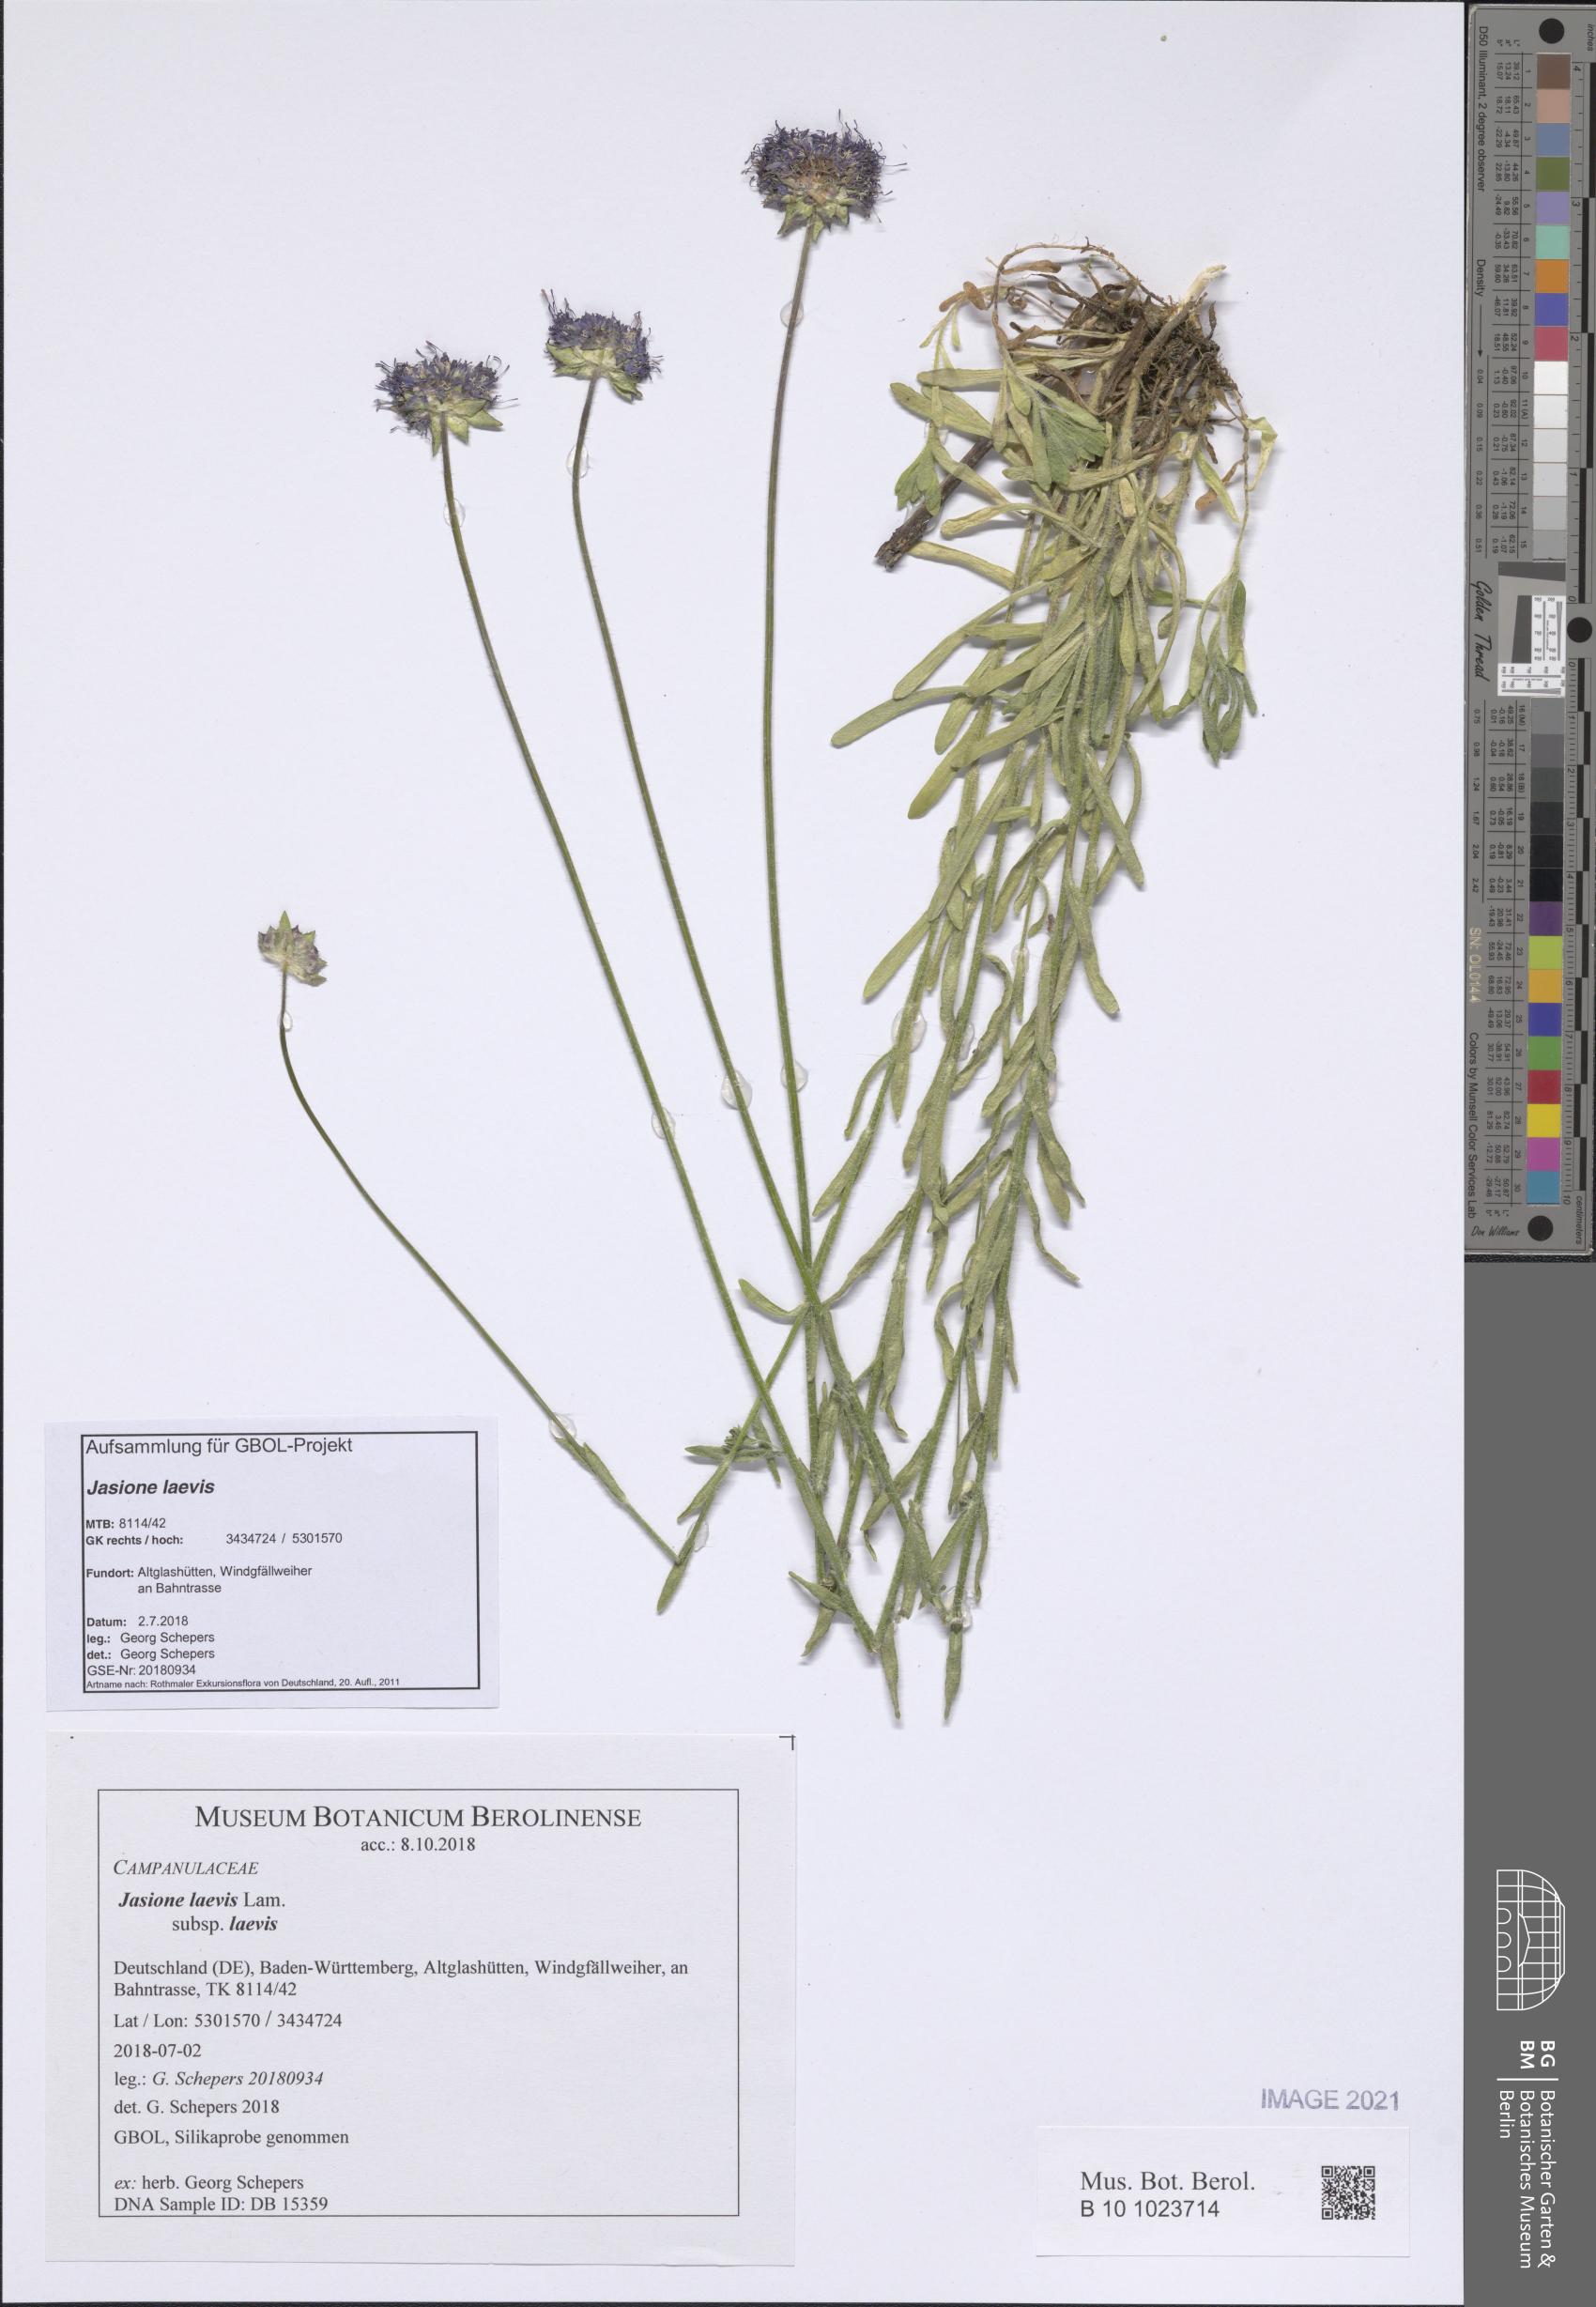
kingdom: Plantae
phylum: Tracheophyta
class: Magnoliopsida
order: Asterales
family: Campanulaceae
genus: Jasione
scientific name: Jasione laevis
